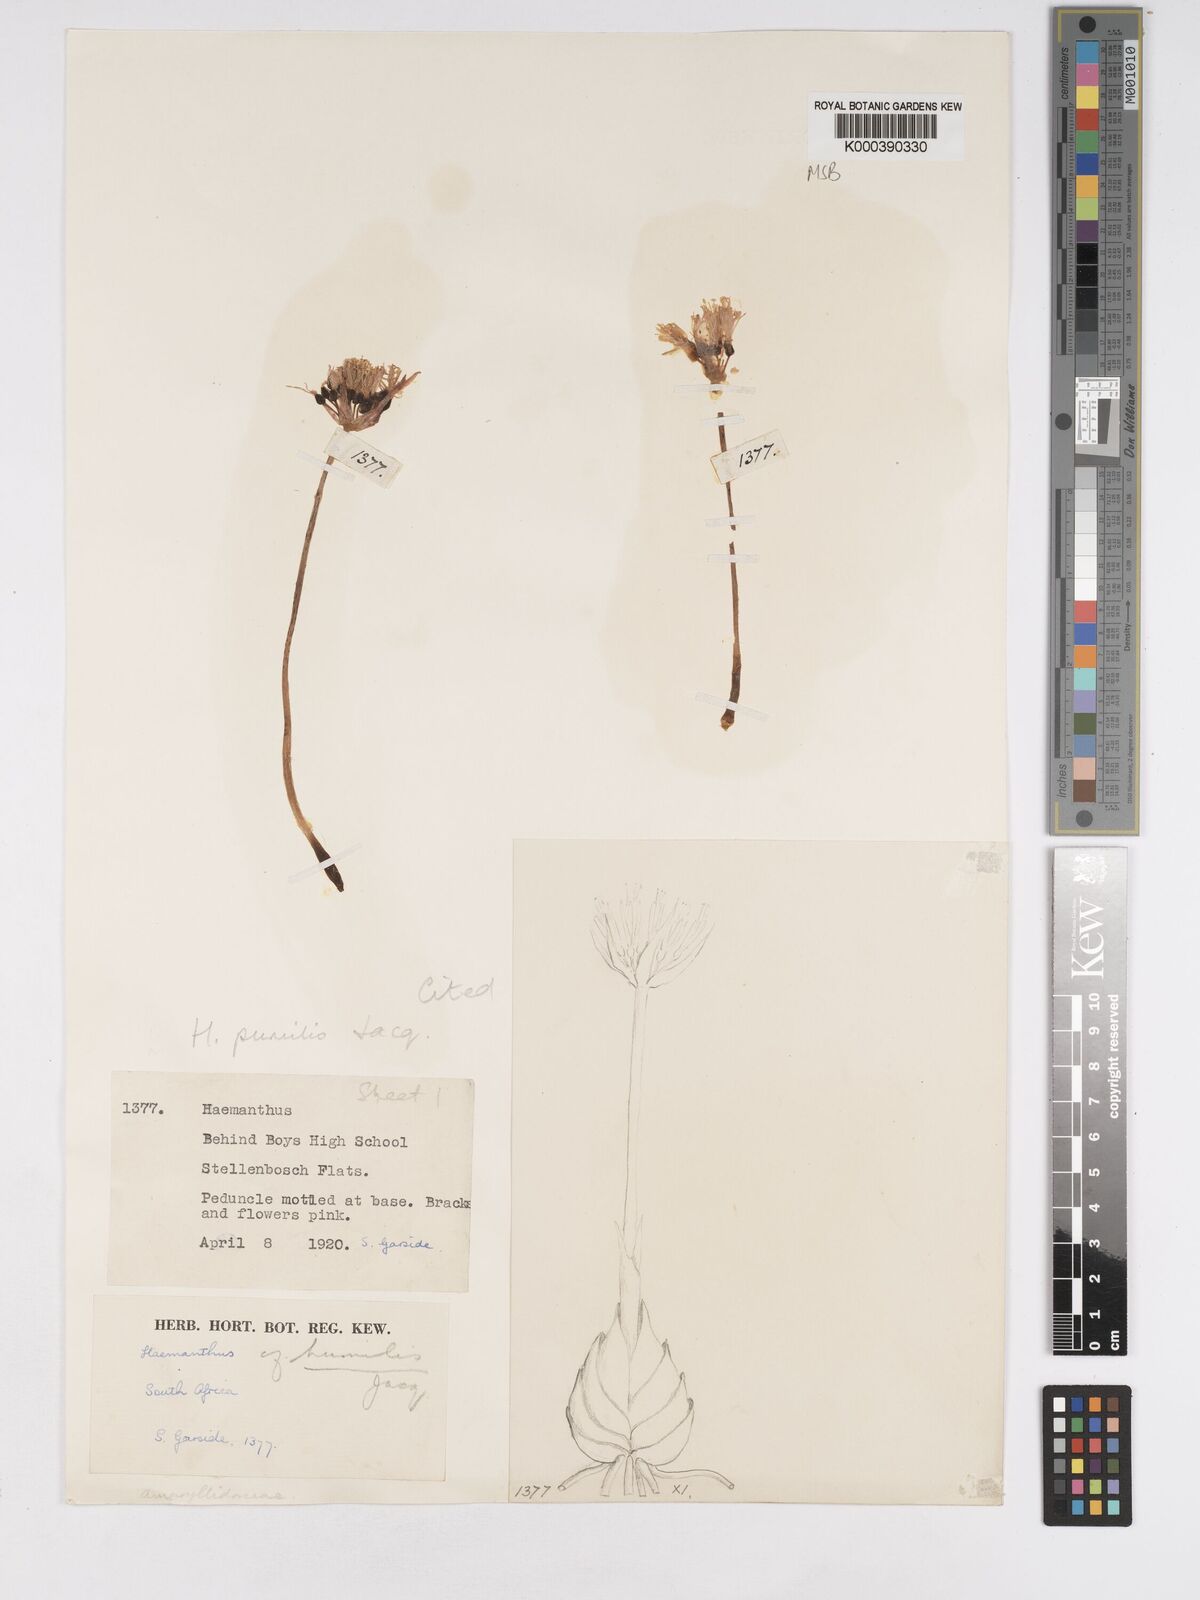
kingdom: Plantae
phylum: Tracheophyta
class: Liliopsida
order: Asparagales
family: Amaryllidaceae
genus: Haemanthus
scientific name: Haemanthus pumilio
